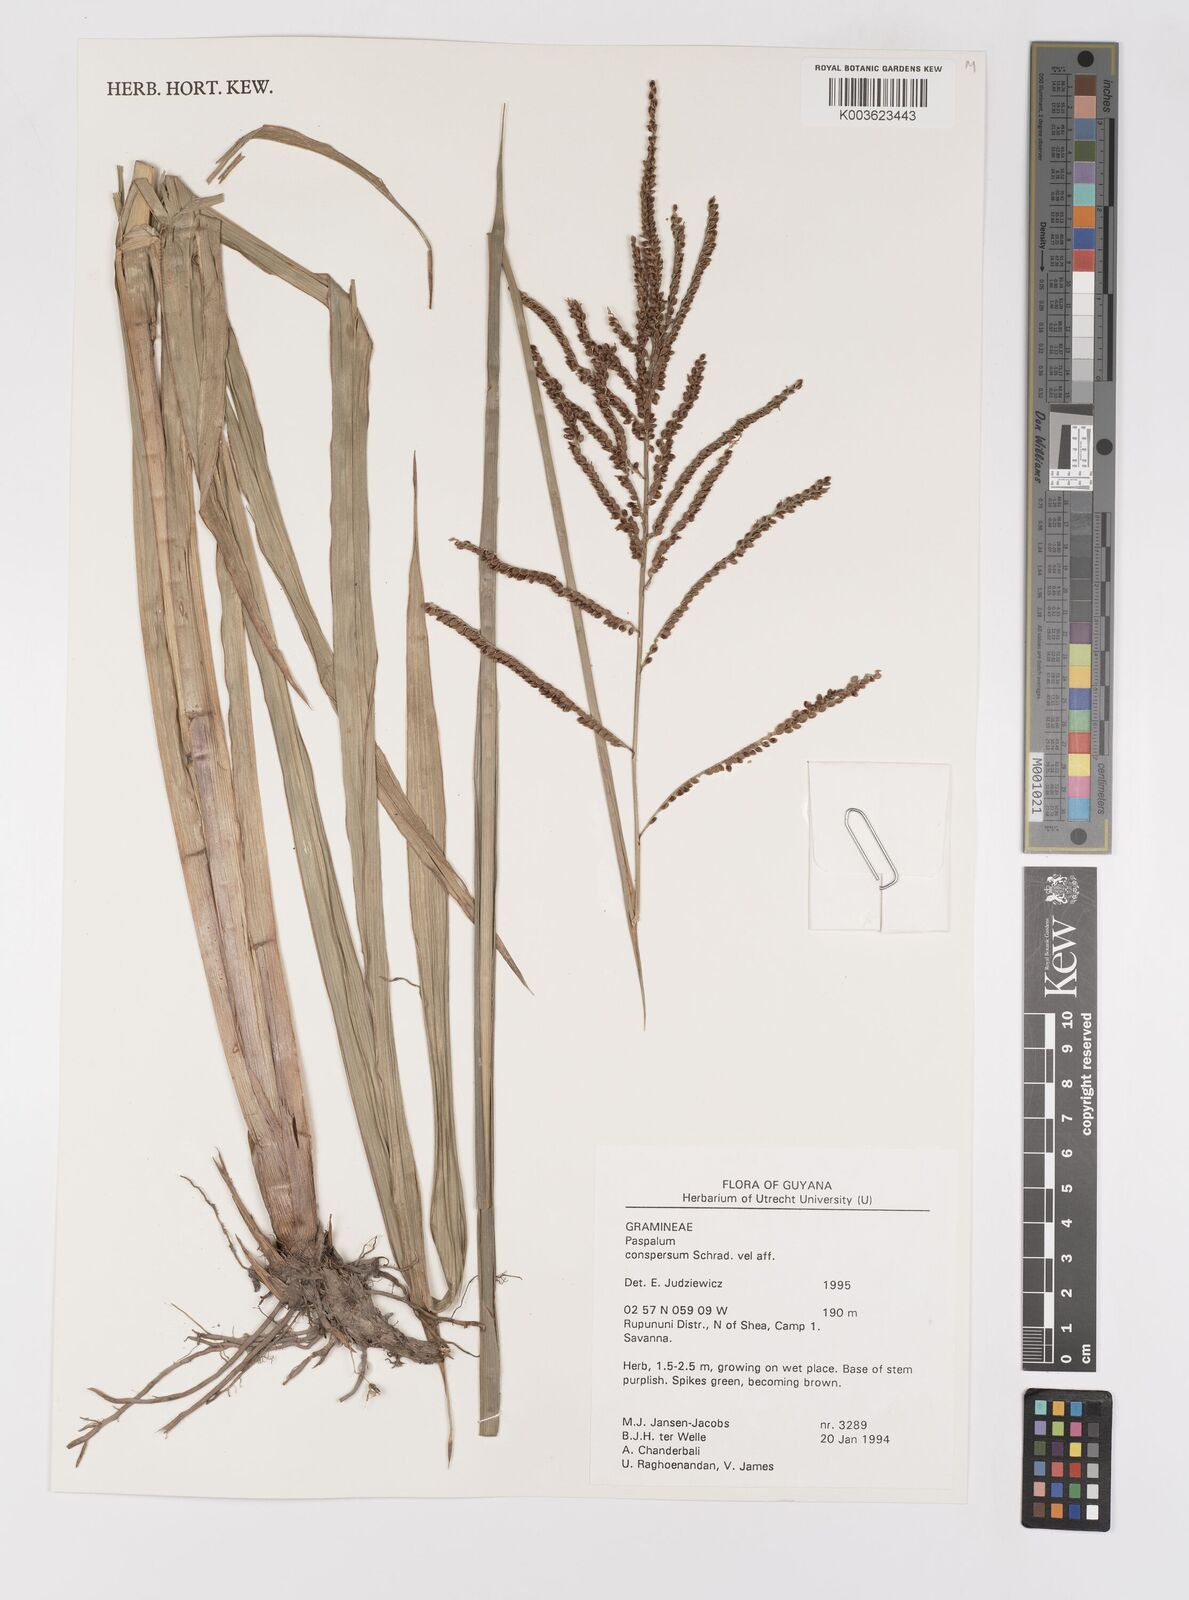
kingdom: Plantae
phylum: Tracheophyta
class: Liliopsida
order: Poales
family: Poaceae
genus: Paspalum
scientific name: Paspalum conspersum
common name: Scattered paspalum
